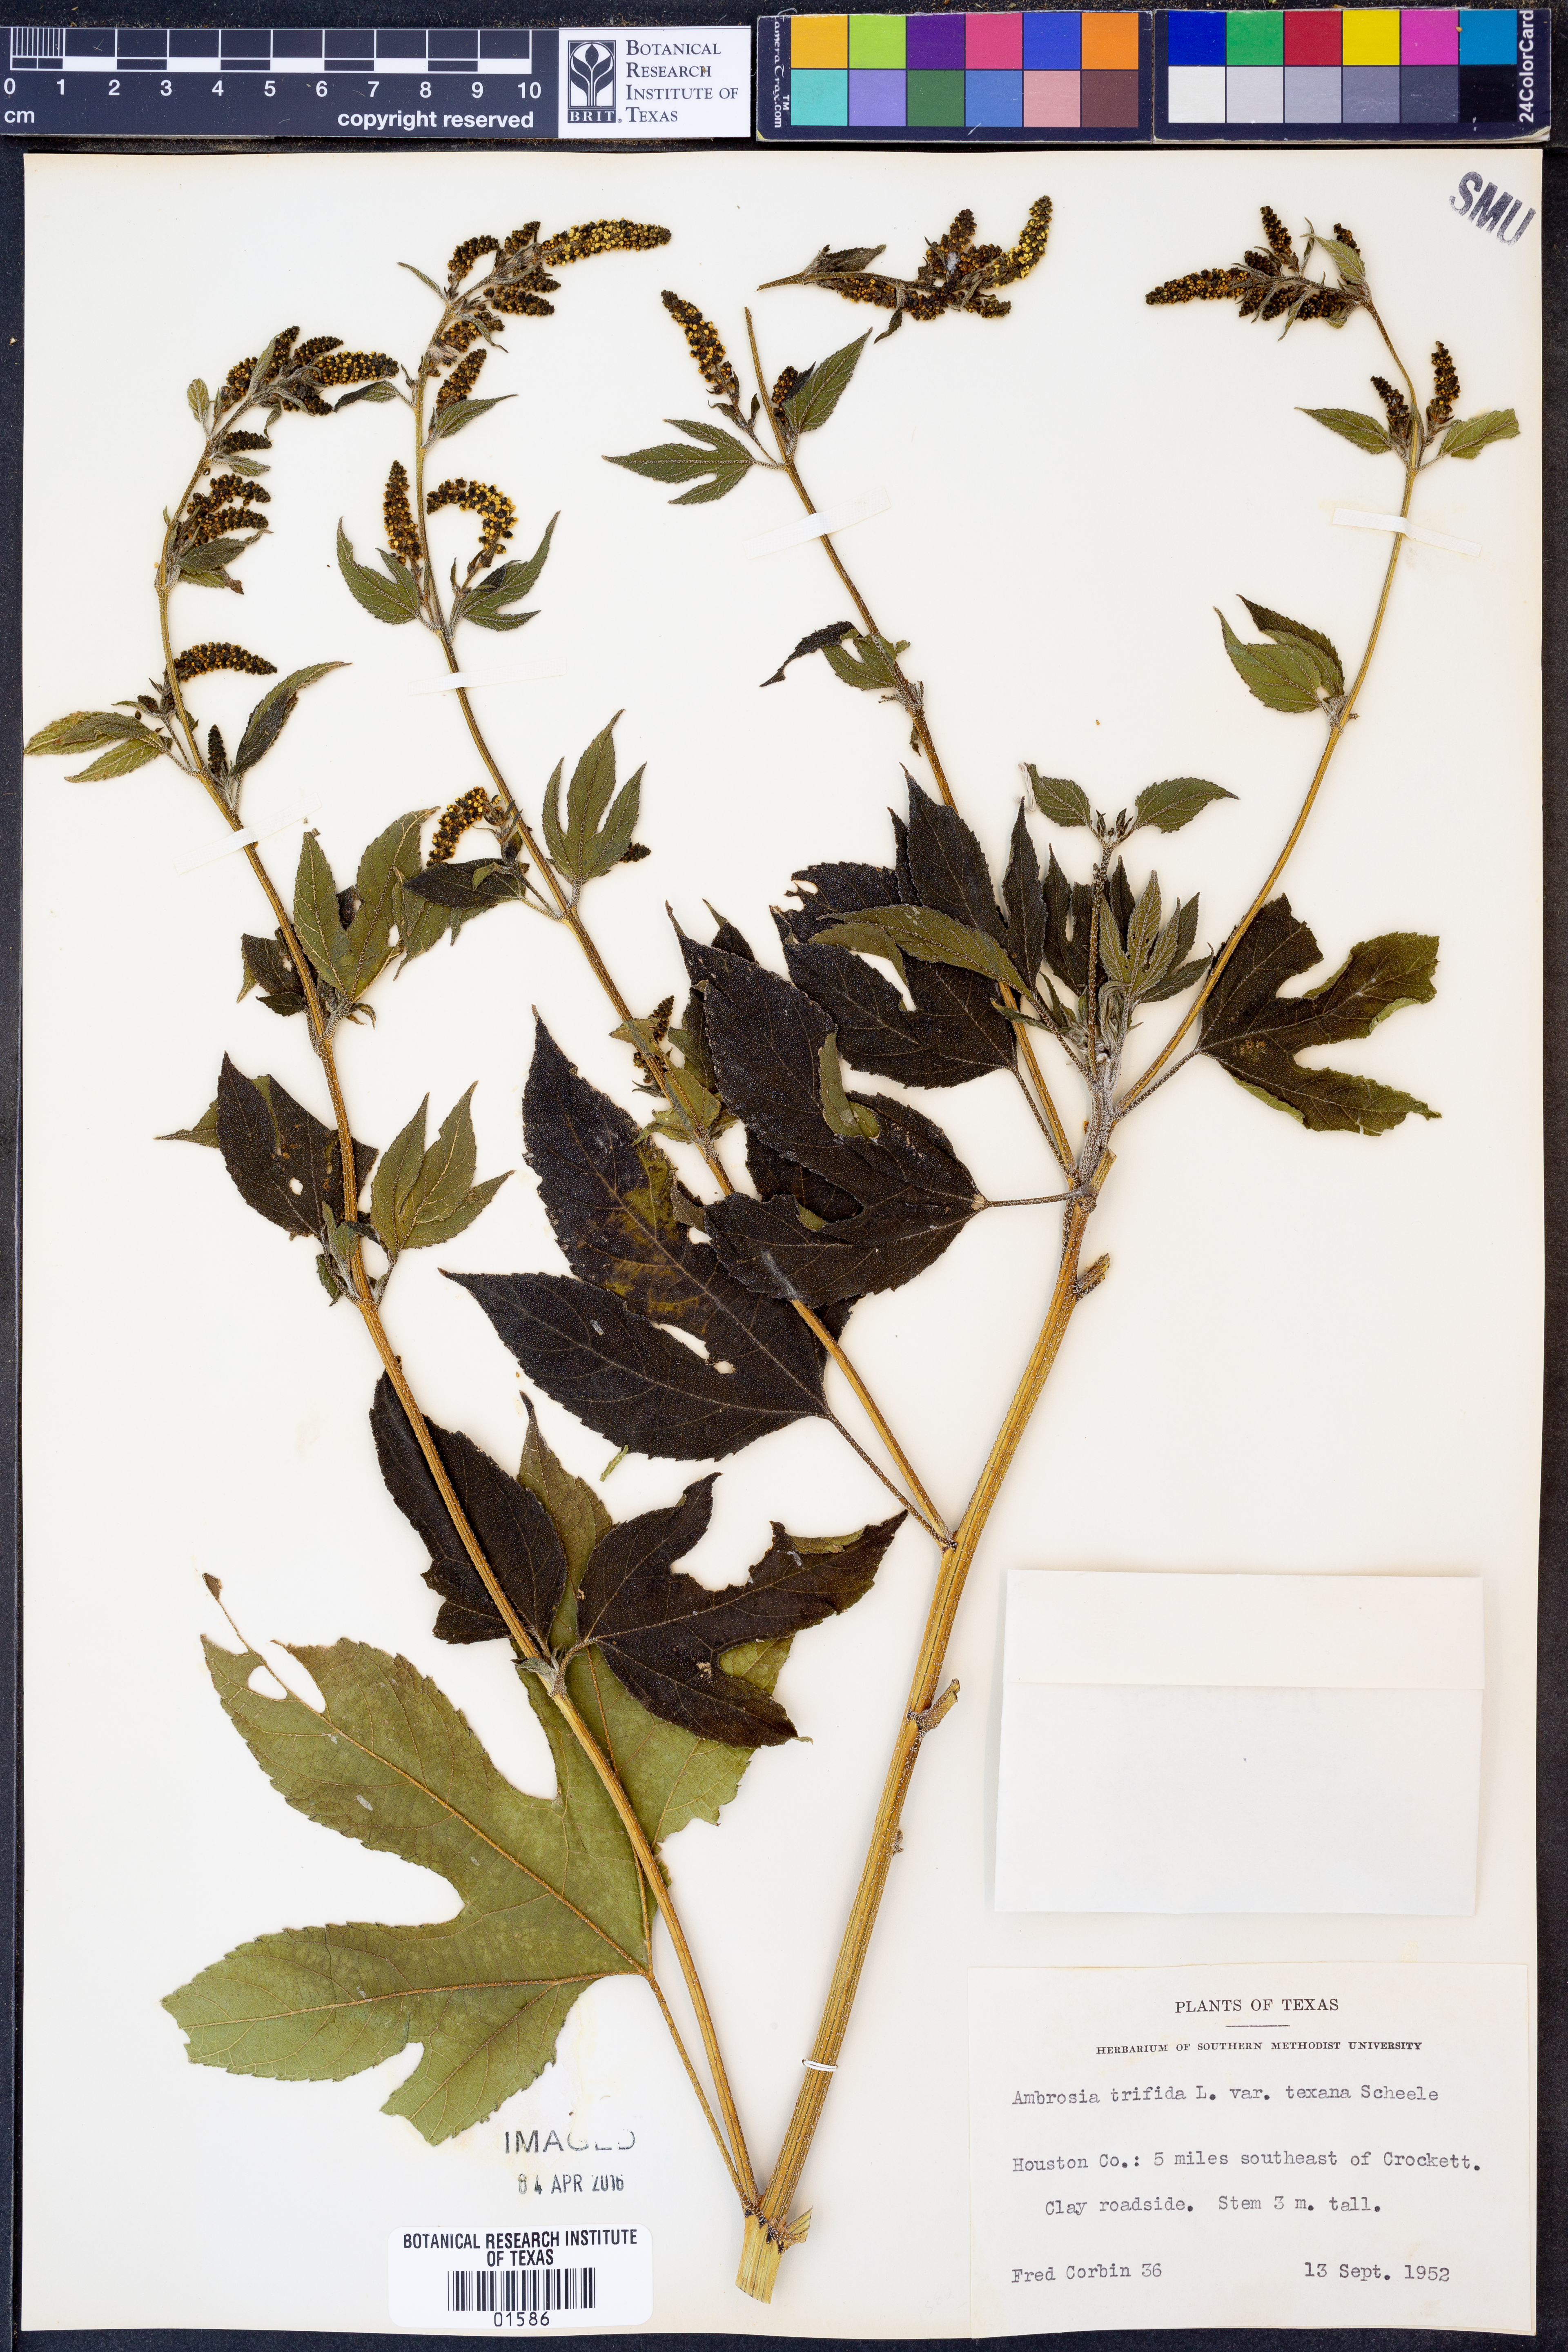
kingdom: Plantae
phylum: Tracheophyta
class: Magnoliopsida
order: Asterales
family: Asteraceae
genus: Ambrosia
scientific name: Ambrosia trifida
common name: Giant ragweed
